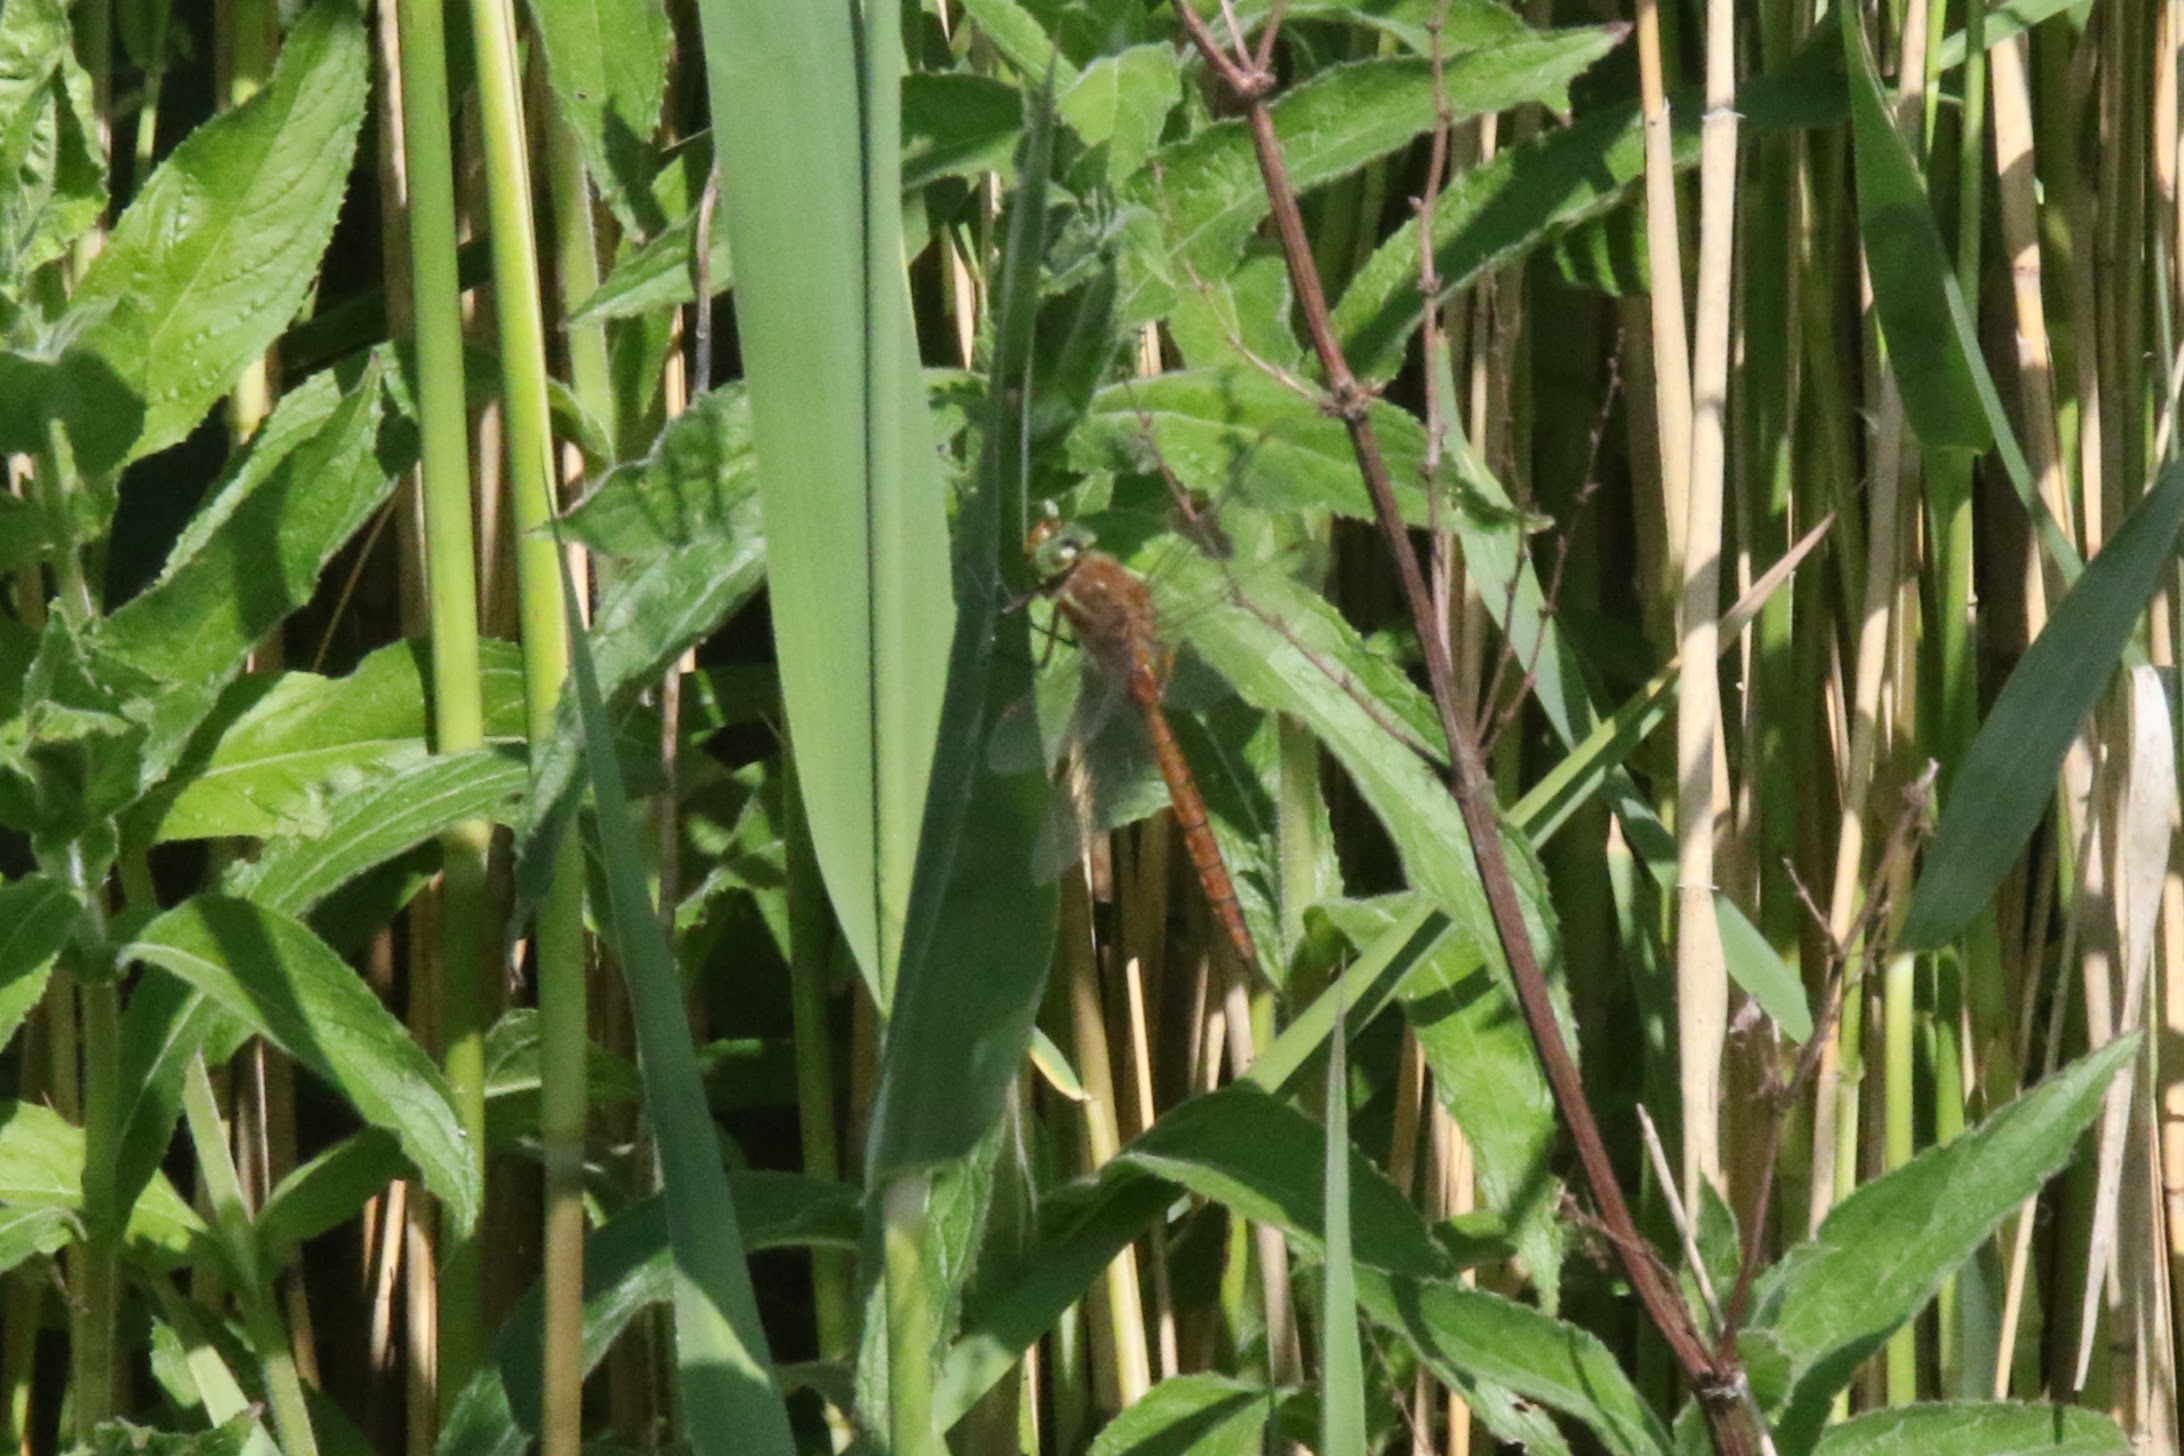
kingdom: Animalia
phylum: Arthropoda
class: Insecta
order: Odonata
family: Aeshnidae
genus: Aeshna
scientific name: Aeshna isoceles
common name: Kileplet-mosaikguldsmed
